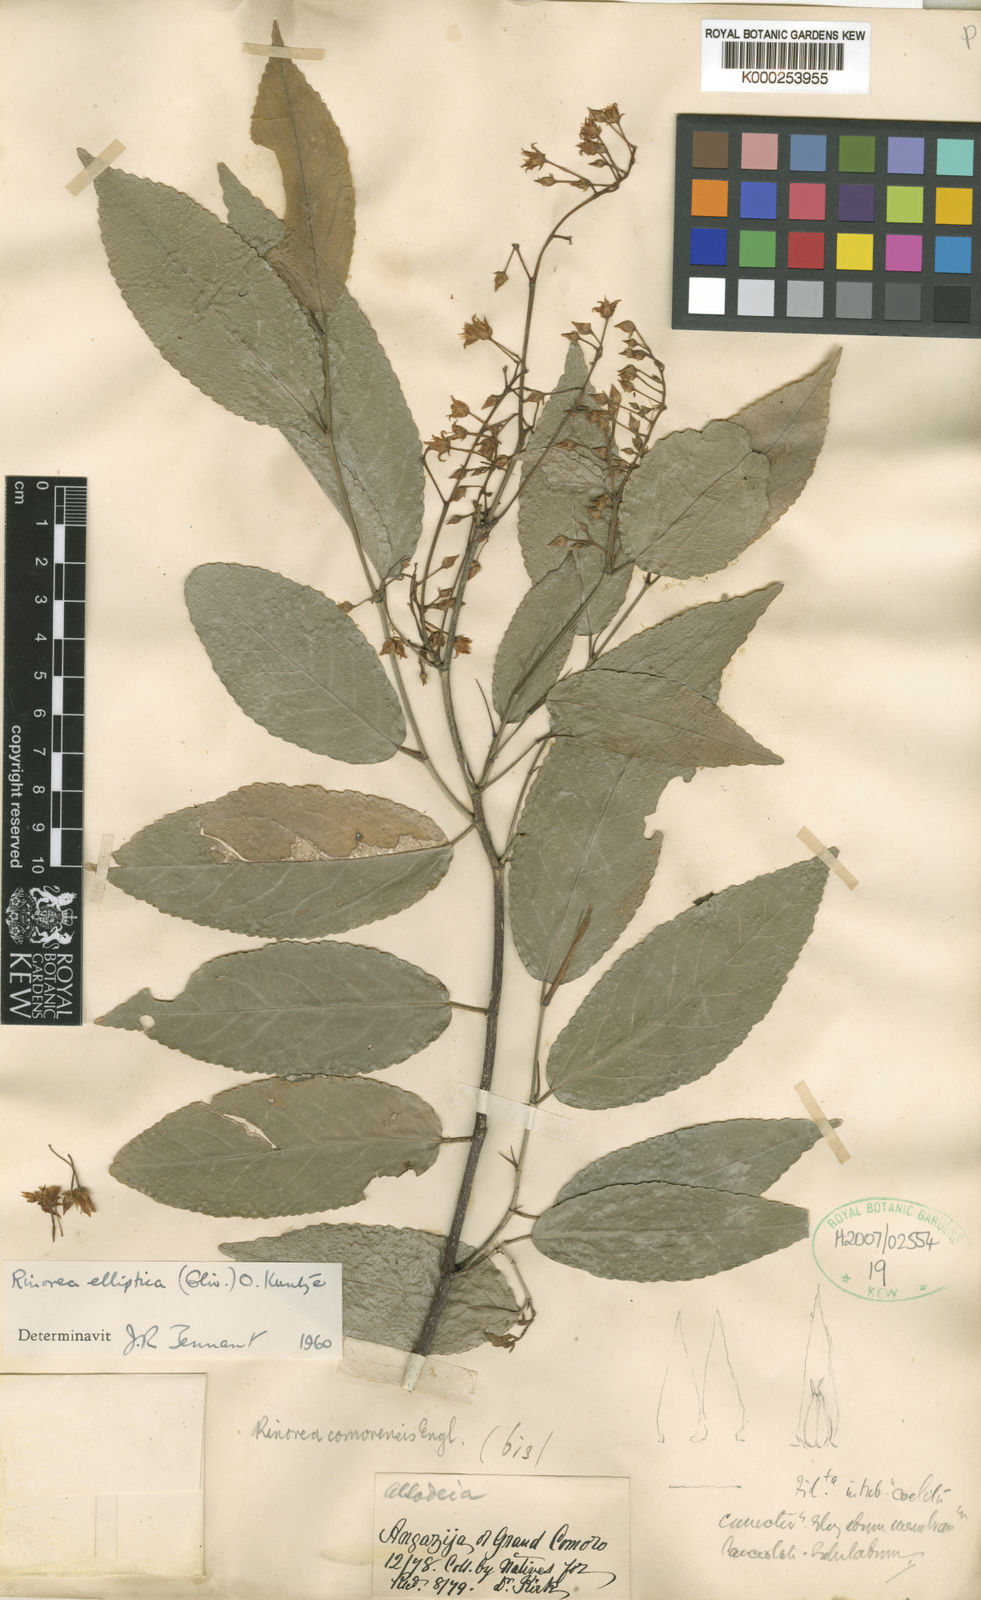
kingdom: Plantae
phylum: Tracheophyta
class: Magnoliopsida
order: Malpighiales
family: Violaceae
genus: Rinorea
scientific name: Rinorea elliptica
